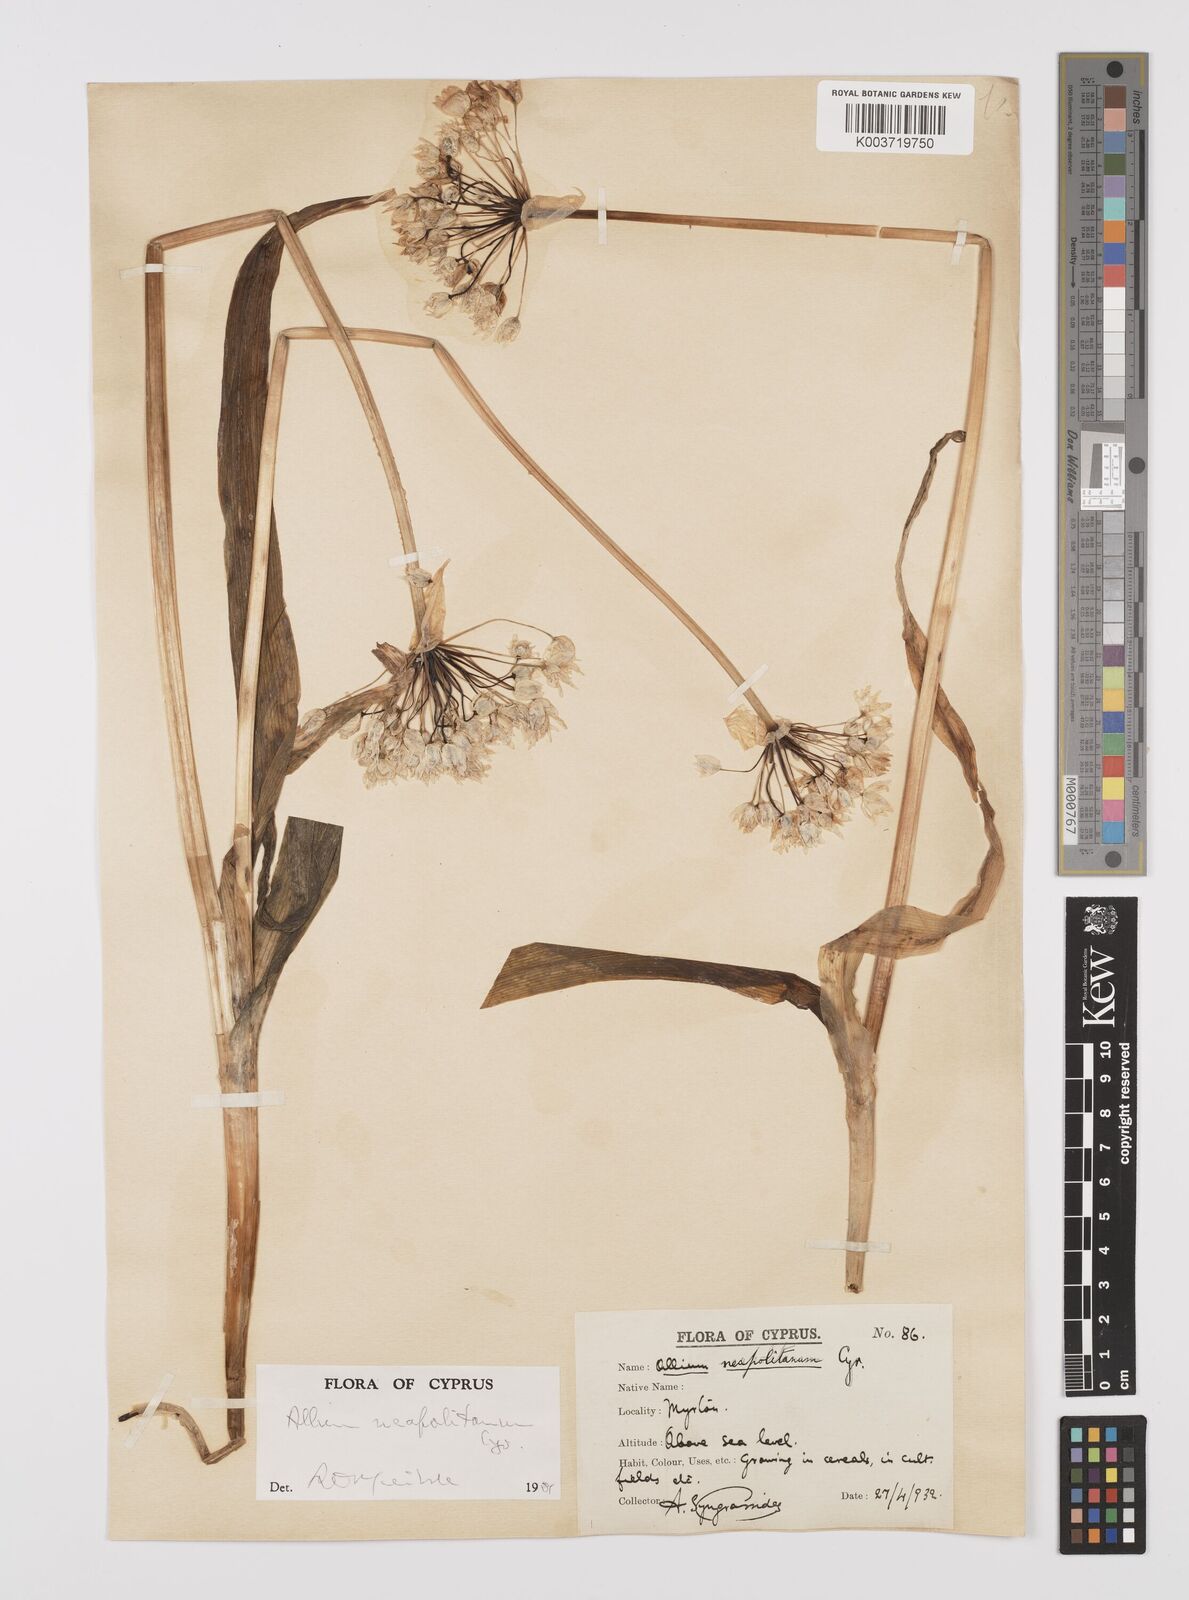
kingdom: Plantae
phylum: Tracheophyta
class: Liliopsida
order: Asparagales
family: Amaryllidaceae
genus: Allium
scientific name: Allium neapolitanum
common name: Neapolitan garlic
